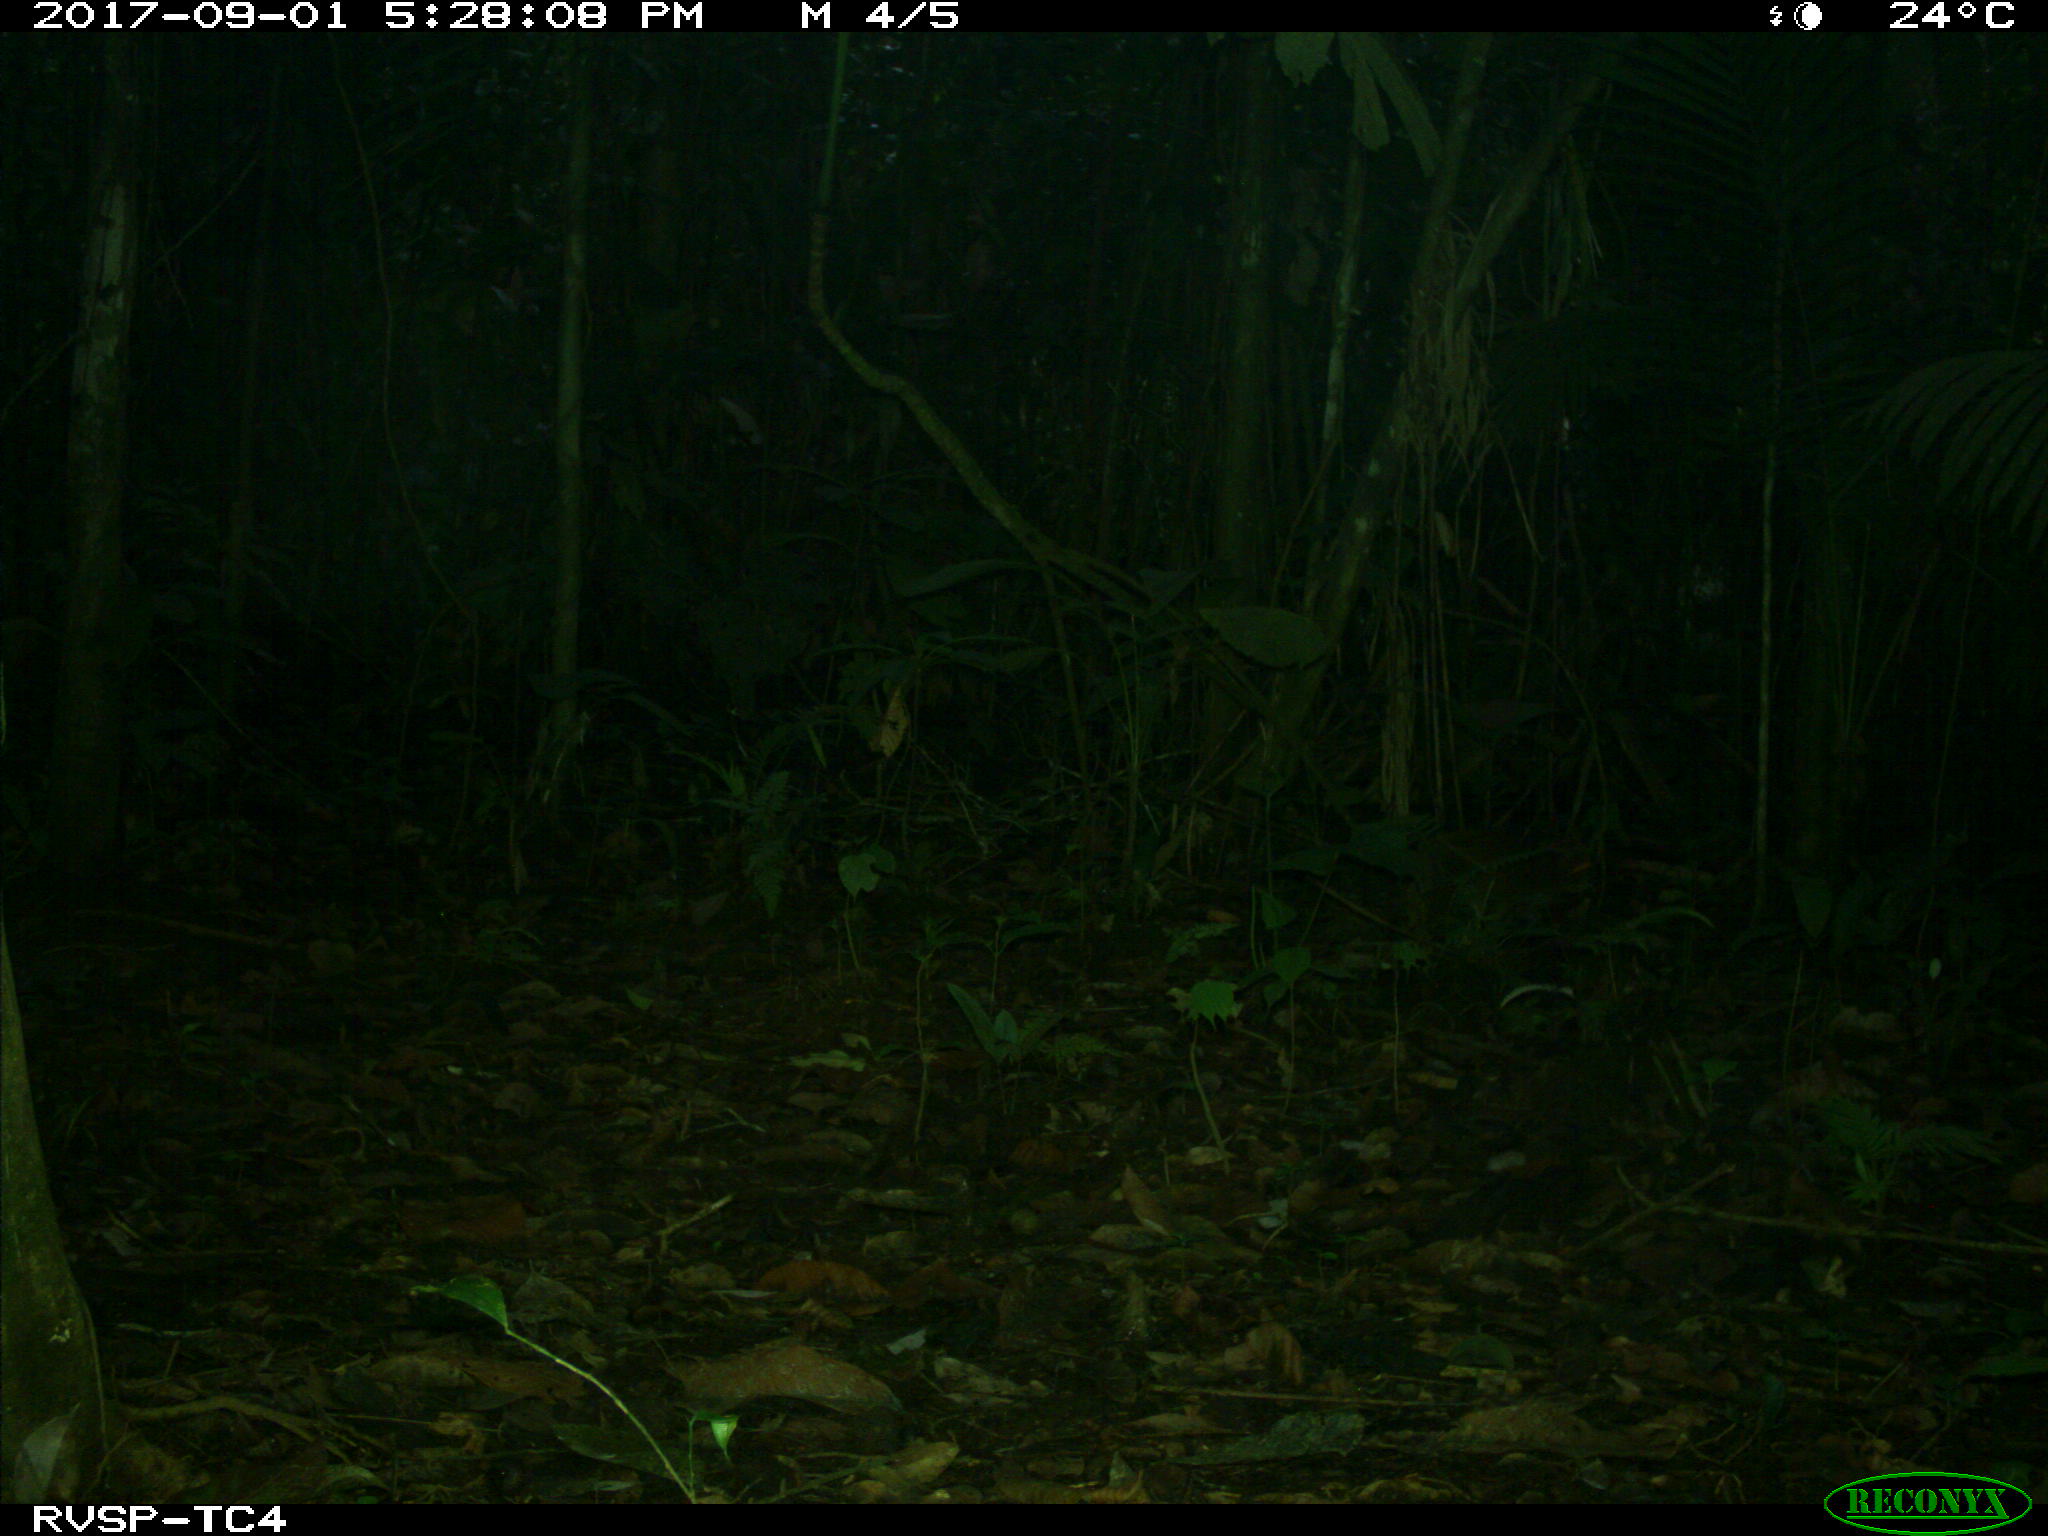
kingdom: Animalia
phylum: Chordata
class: Mammalia
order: Rodentia
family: Dasyproctidae
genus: Dasyprocta
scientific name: Dasyprocta punctata
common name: Central american agouti
